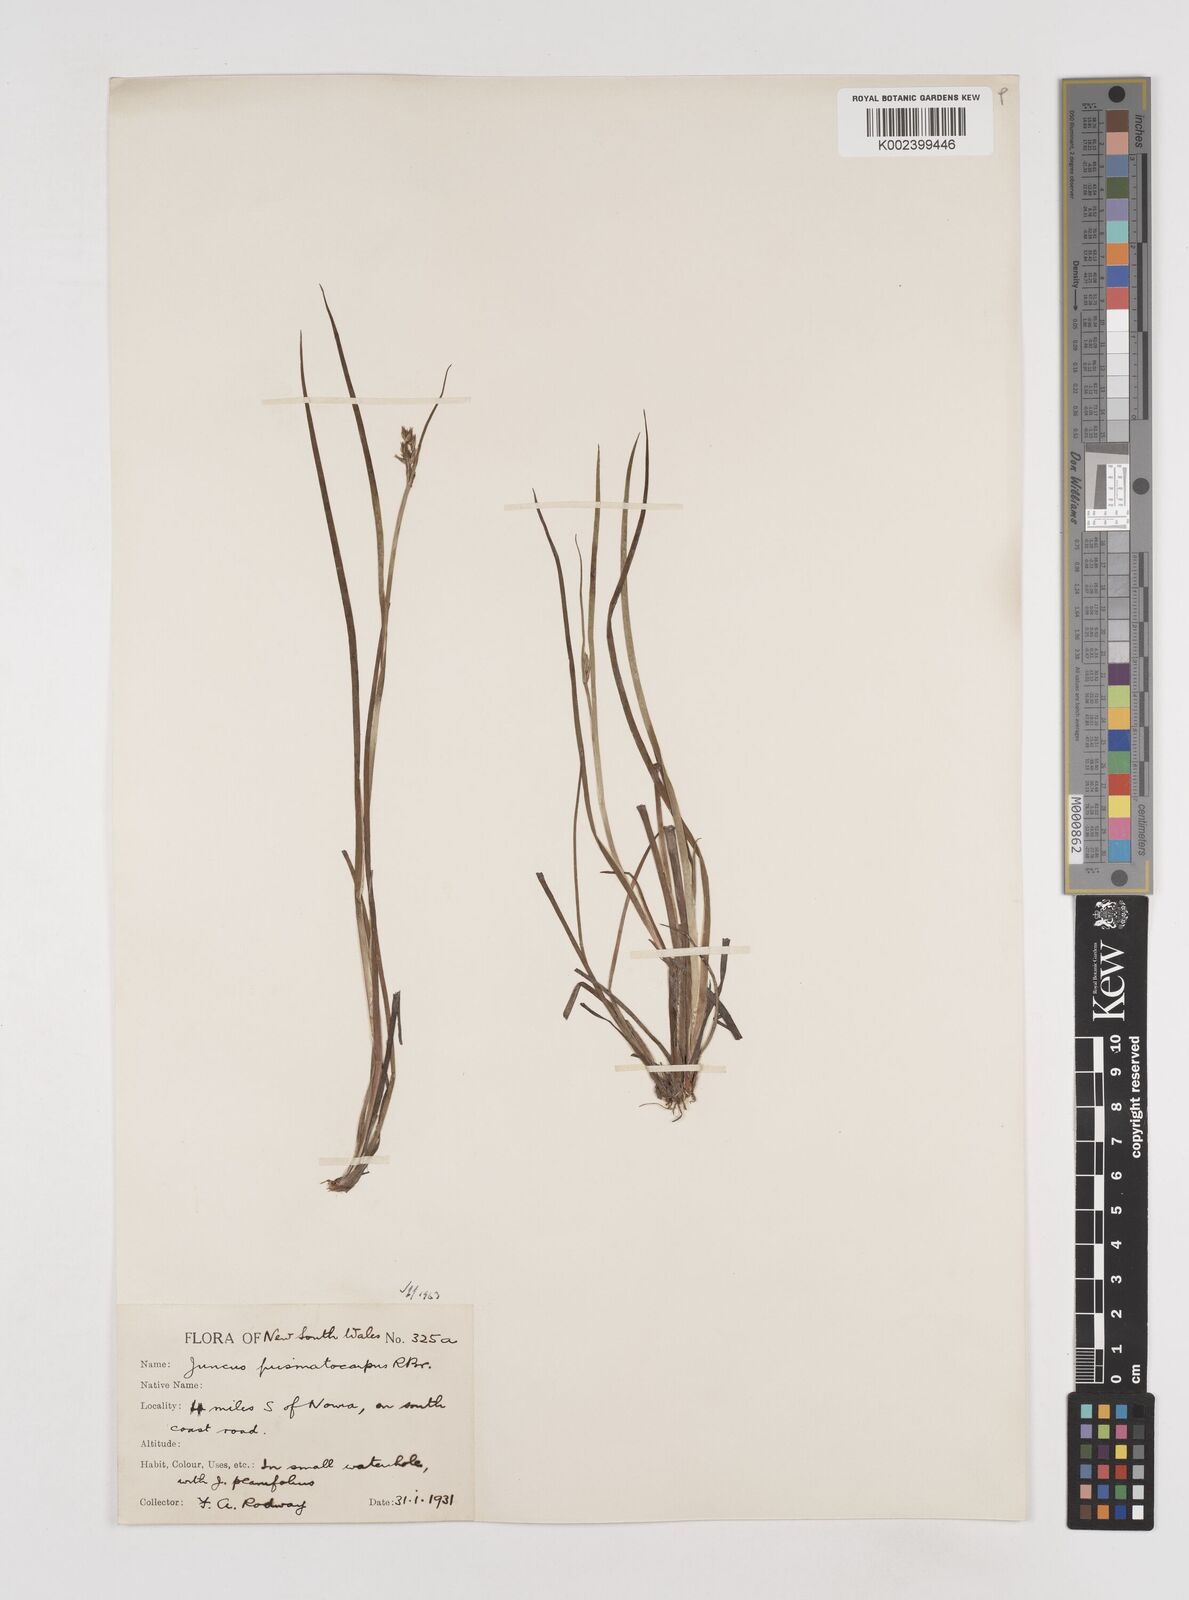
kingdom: Plantae
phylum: Tracheophyta
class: Liliopsida
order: Poales
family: Juncaceae
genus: Juncus
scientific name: Juncus prismatocarpus
